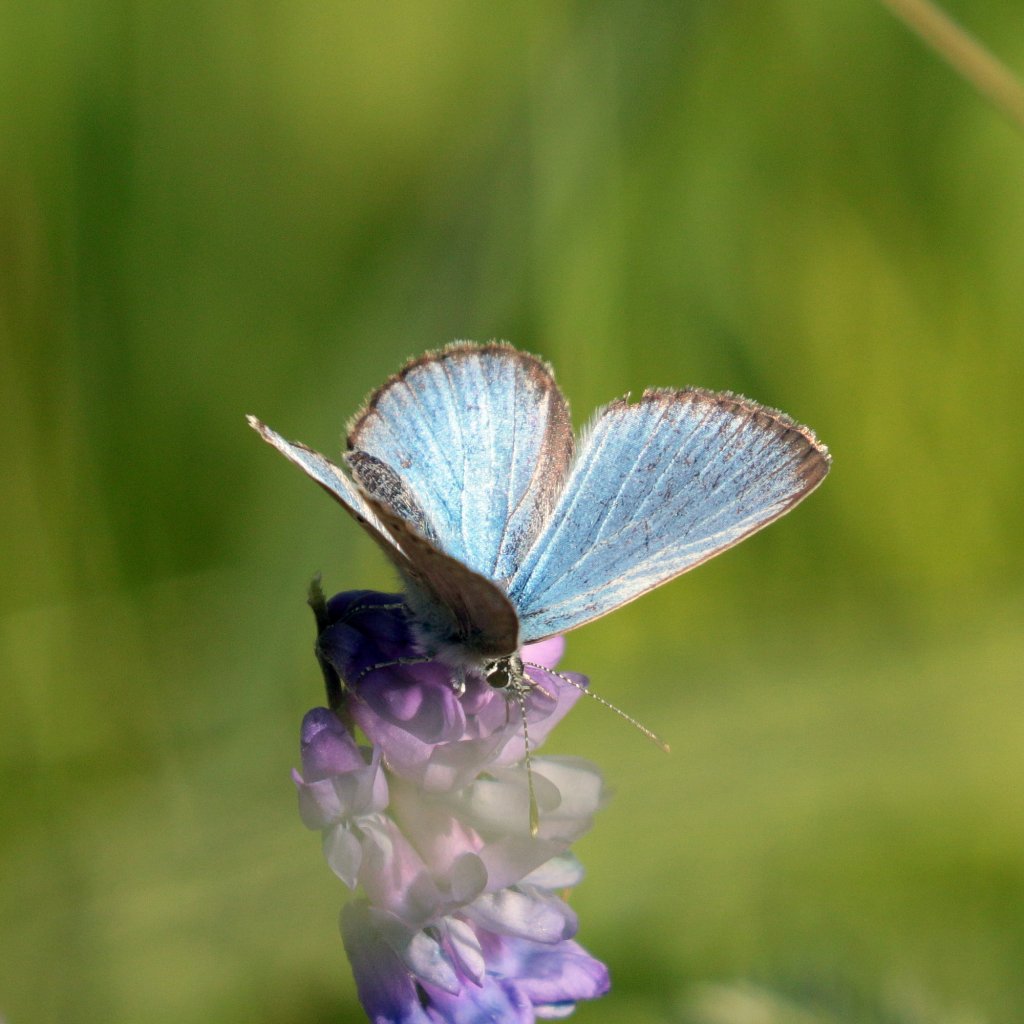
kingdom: Animalia
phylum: Arthropoda
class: Insecta
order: Lepidoptera
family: Lycaenidae
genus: Glaucopsyche
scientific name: Glaucopsyche lygdamus
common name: Silvery Blue
